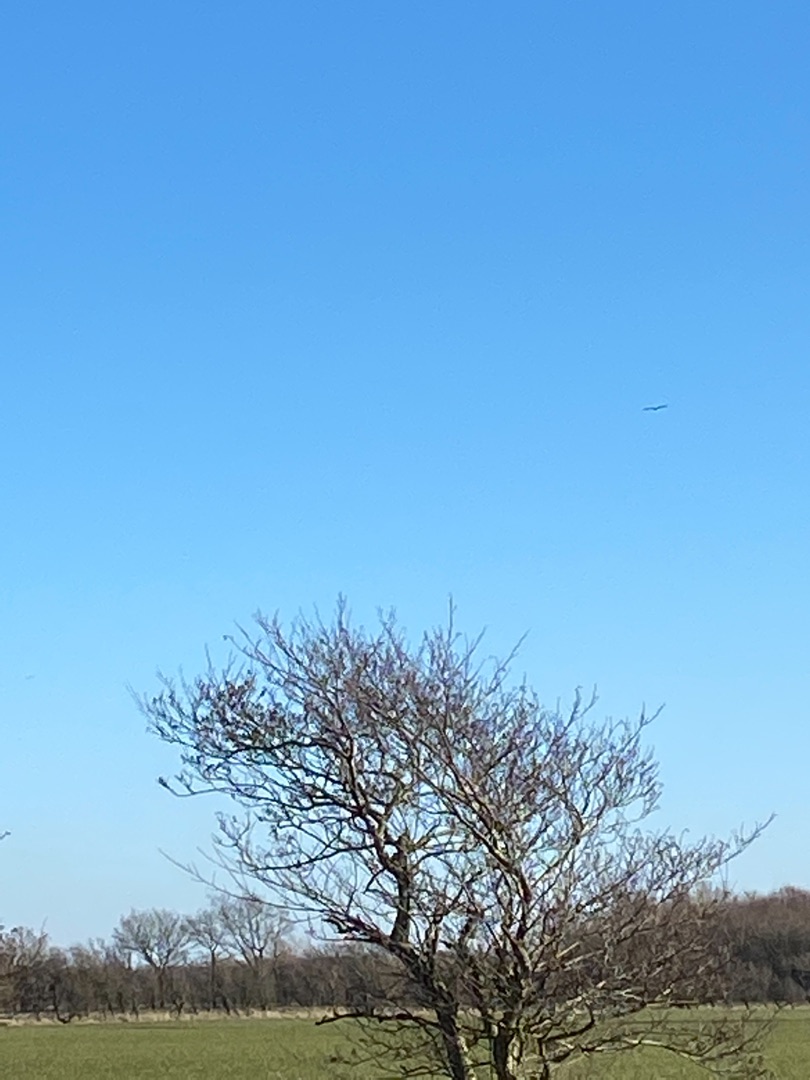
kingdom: Animalia
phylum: Chordata
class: Aves
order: Accipitriformes
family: Accipitridae
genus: Haliaeetus
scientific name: Haliaeetus albicilla
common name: Havørn
